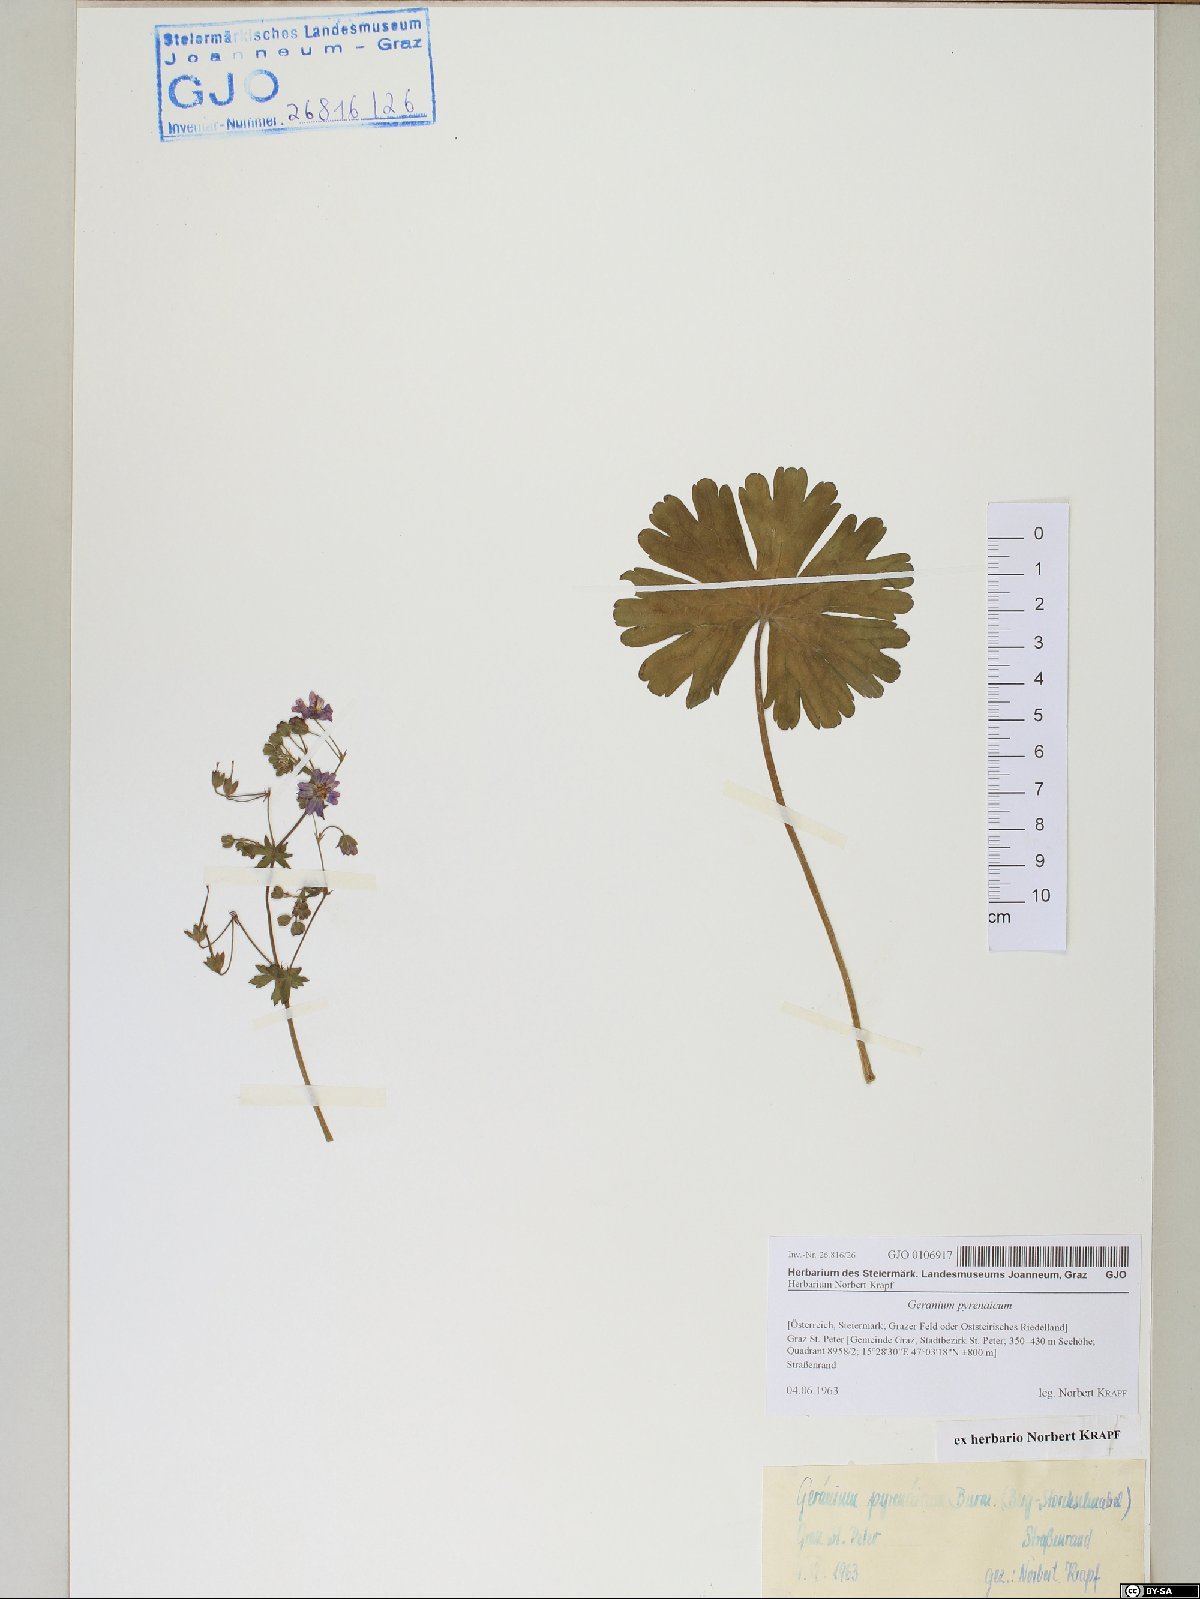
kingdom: Plantae
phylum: Tracheophyta
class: Magnoliopsida
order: Geraniales
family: Geraniaceae
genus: Geranium
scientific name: Geranium pyrenaicum
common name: Hedgerow crane's-bill
